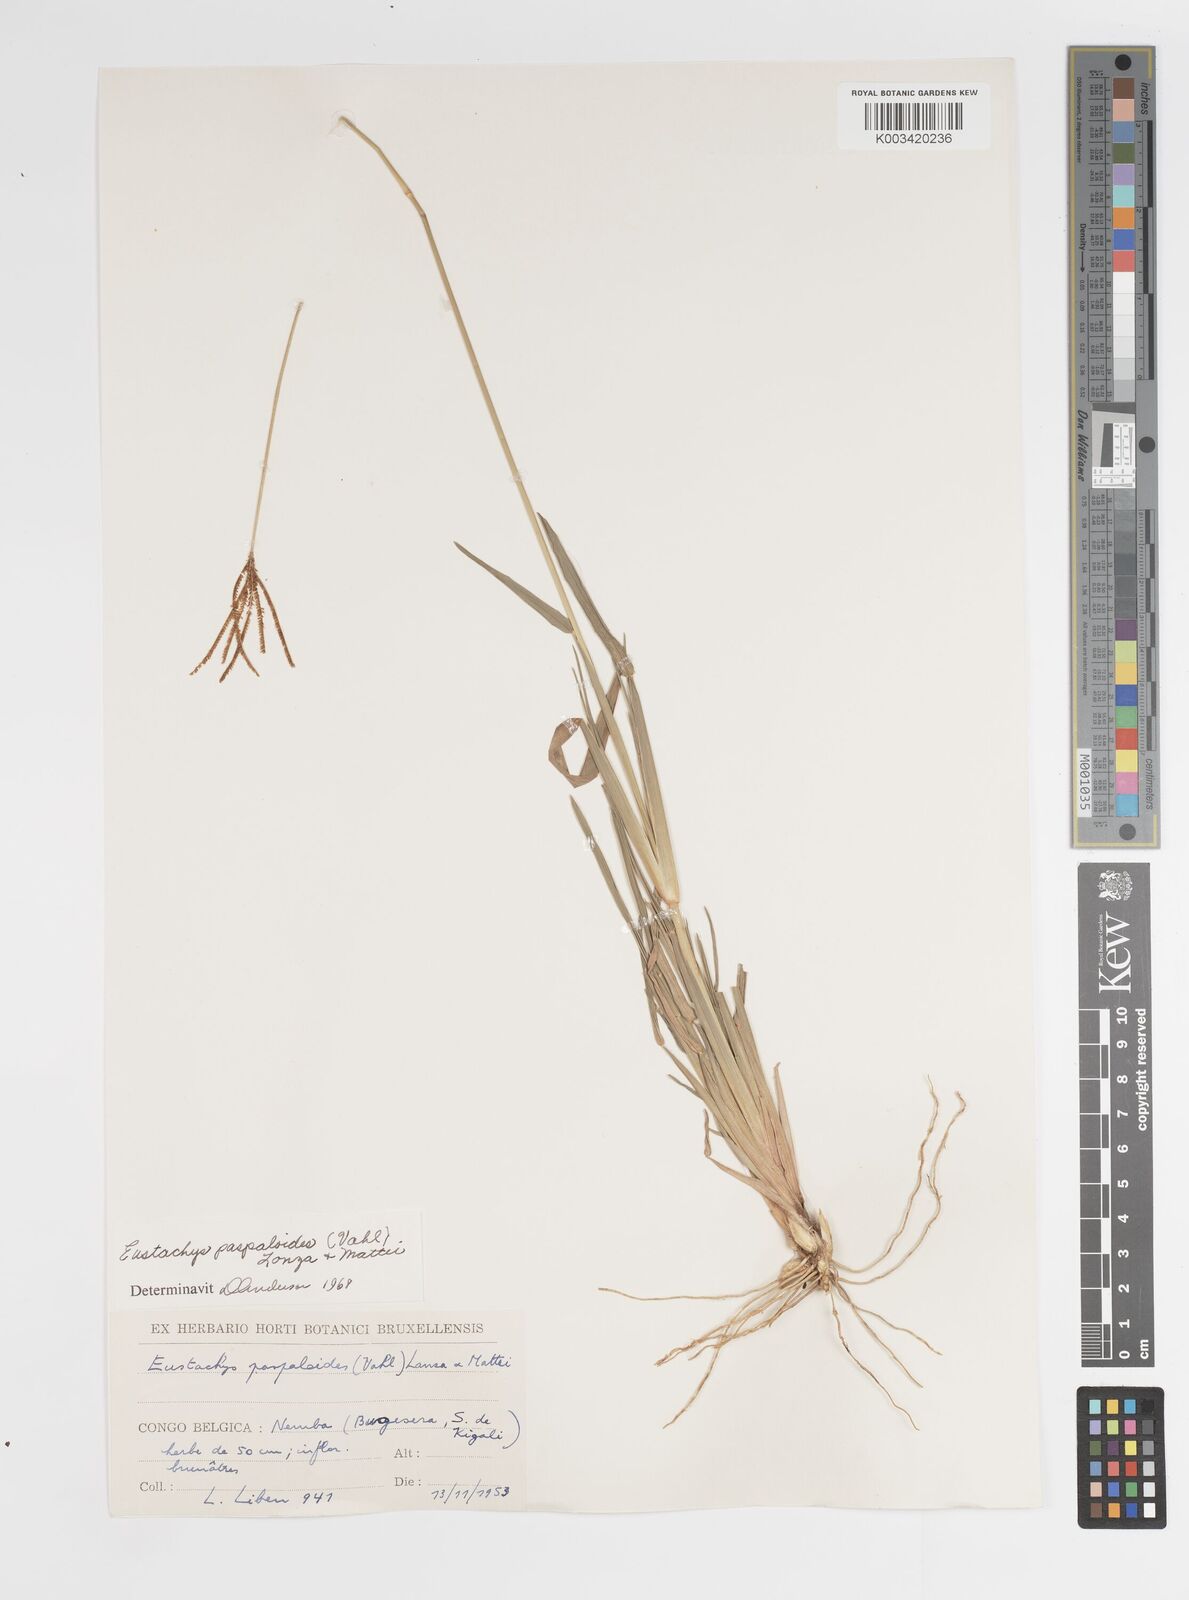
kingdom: Plantae
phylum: Tracheophyta
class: Liliopsida
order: Poales
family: Poaceae
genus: Eustachys
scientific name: Eustachys paspaloides
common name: Caribbean fingergrass
